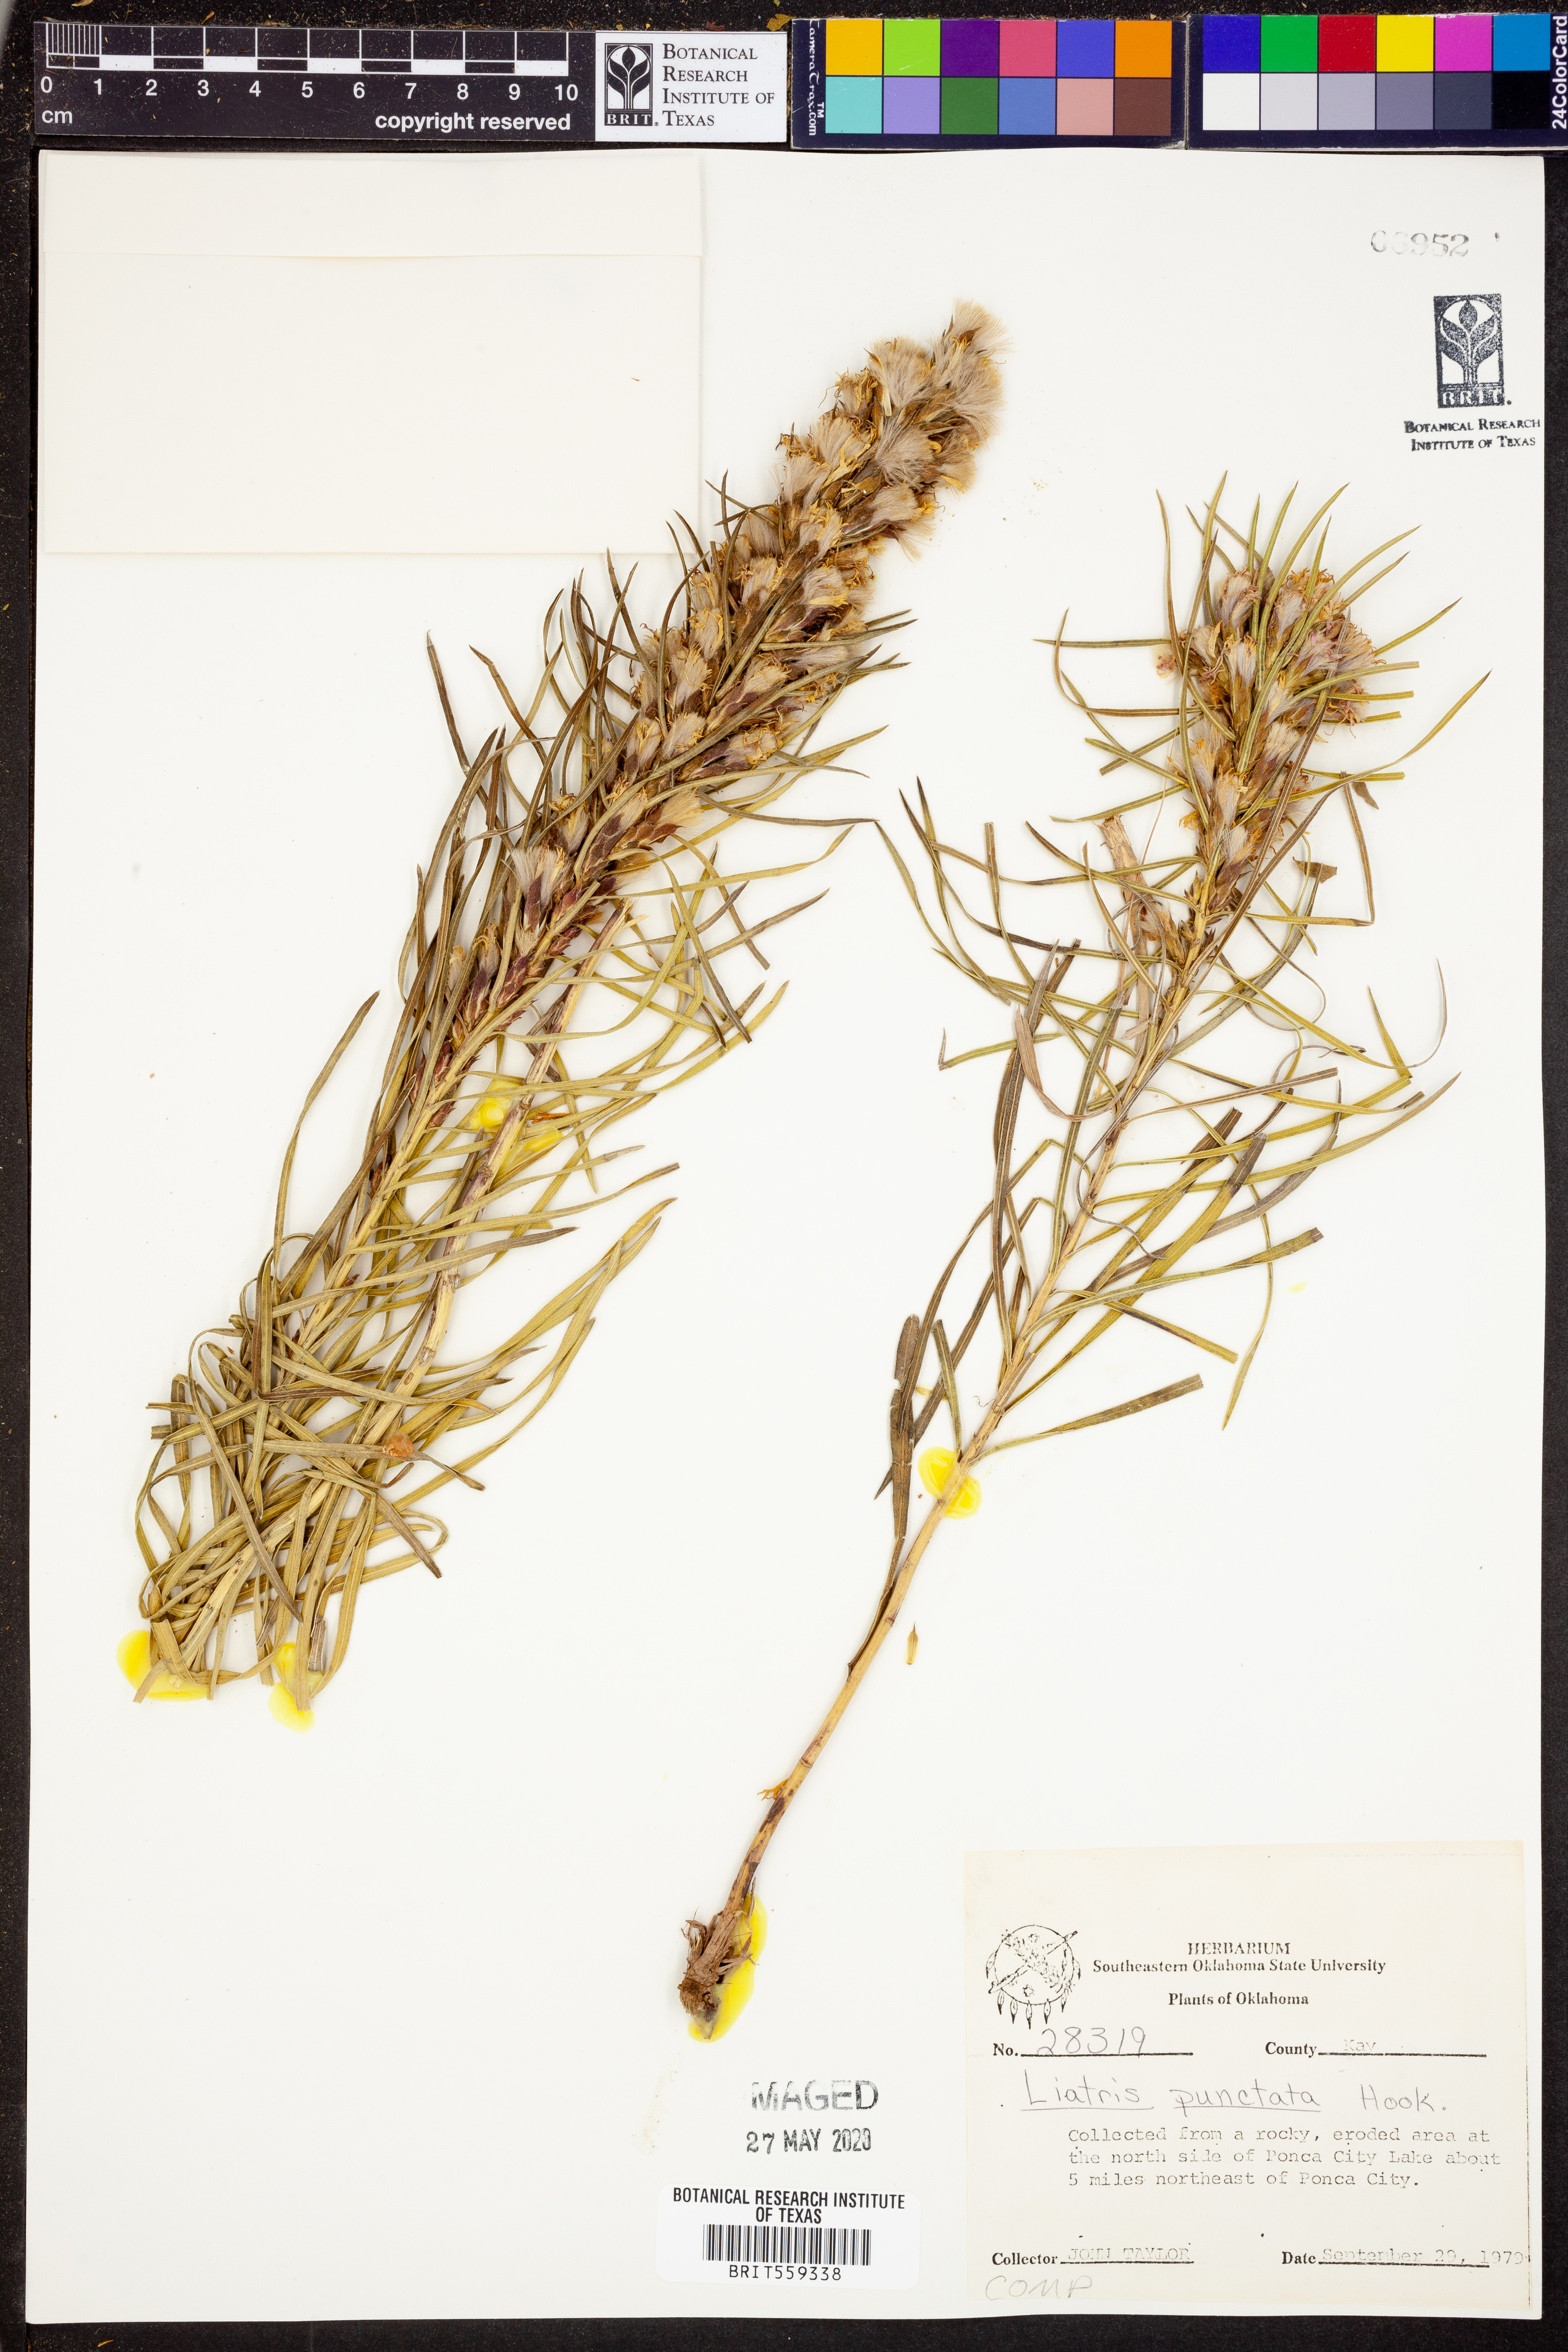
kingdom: Plantae
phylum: Tracheophyta
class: Magnoliopsida
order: Asterales
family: Asteraceae
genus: Liatris
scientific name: Liatris punctata
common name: Dotted gayfeather
